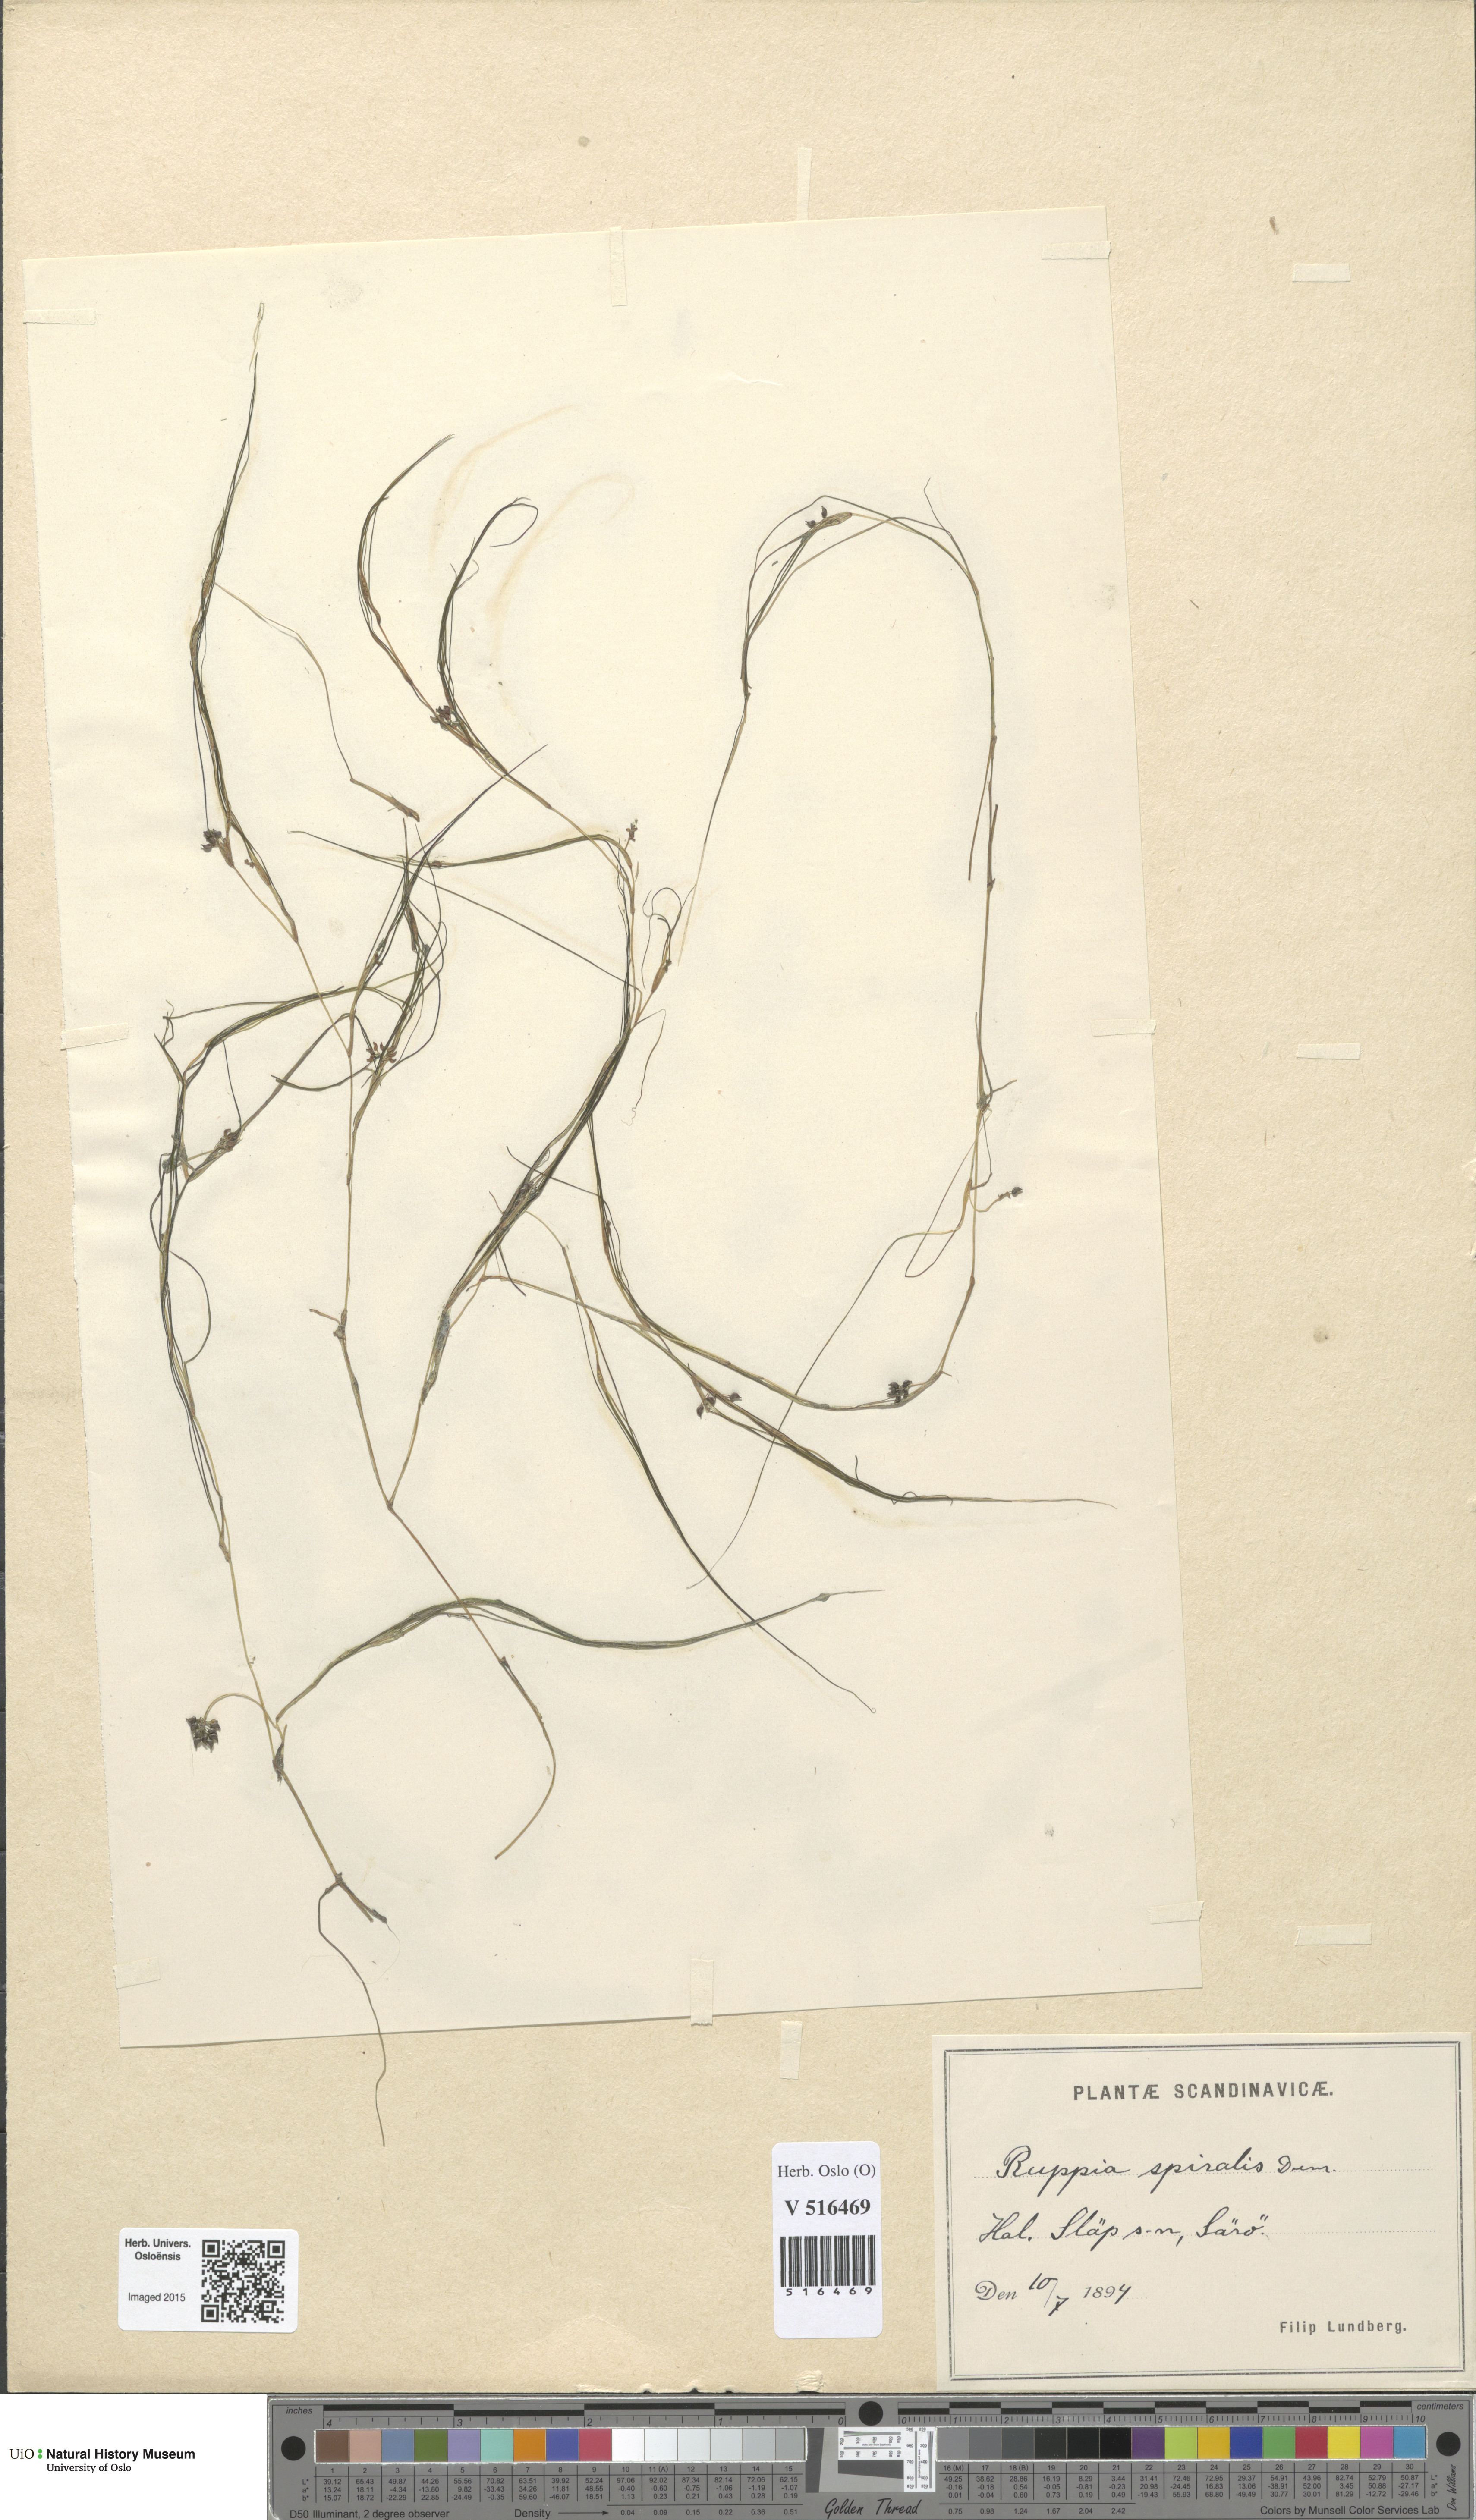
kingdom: Plantae
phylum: Tracheophyta
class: Liliopsida
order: Alismatales
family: Ruppiaceae
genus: Ruppia
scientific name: Ruppia cirrhosa
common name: Spiral tasselweed
